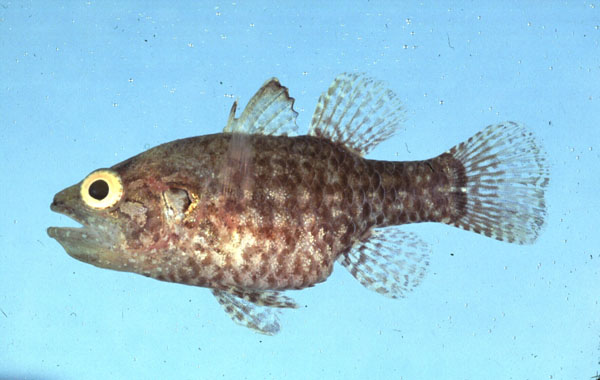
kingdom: Animalia
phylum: Chordata
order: Perciformes
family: Apogonidae
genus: Fowleria
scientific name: Fowleria variegata
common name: Variegated cardinalfish
